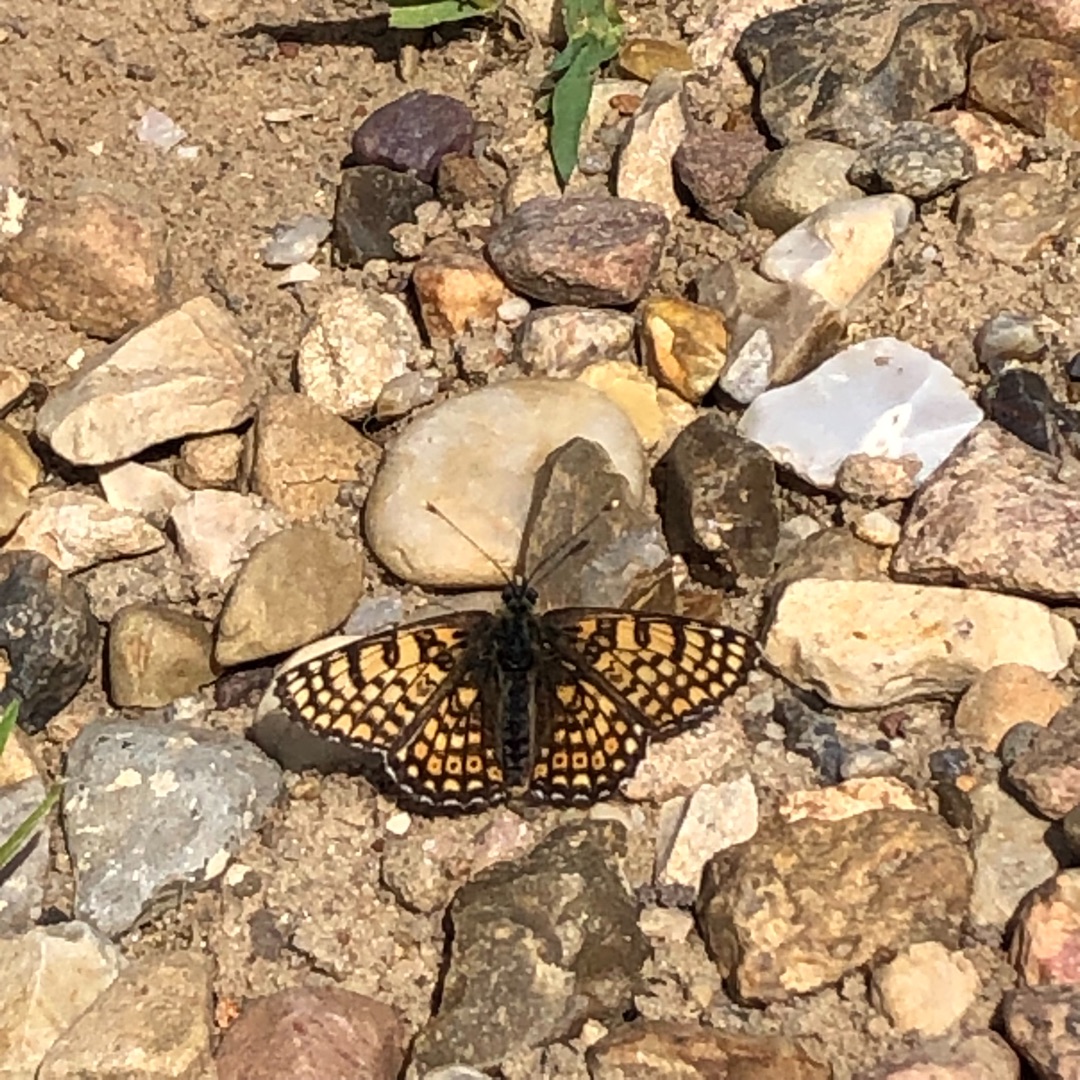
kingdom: Animalia
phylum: Arthropoda
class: Insecta
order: Lepidoptera
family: Nymphalidae
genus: Melitaea
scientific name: Melitaea cinxia
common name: Okkergul pletvinge
